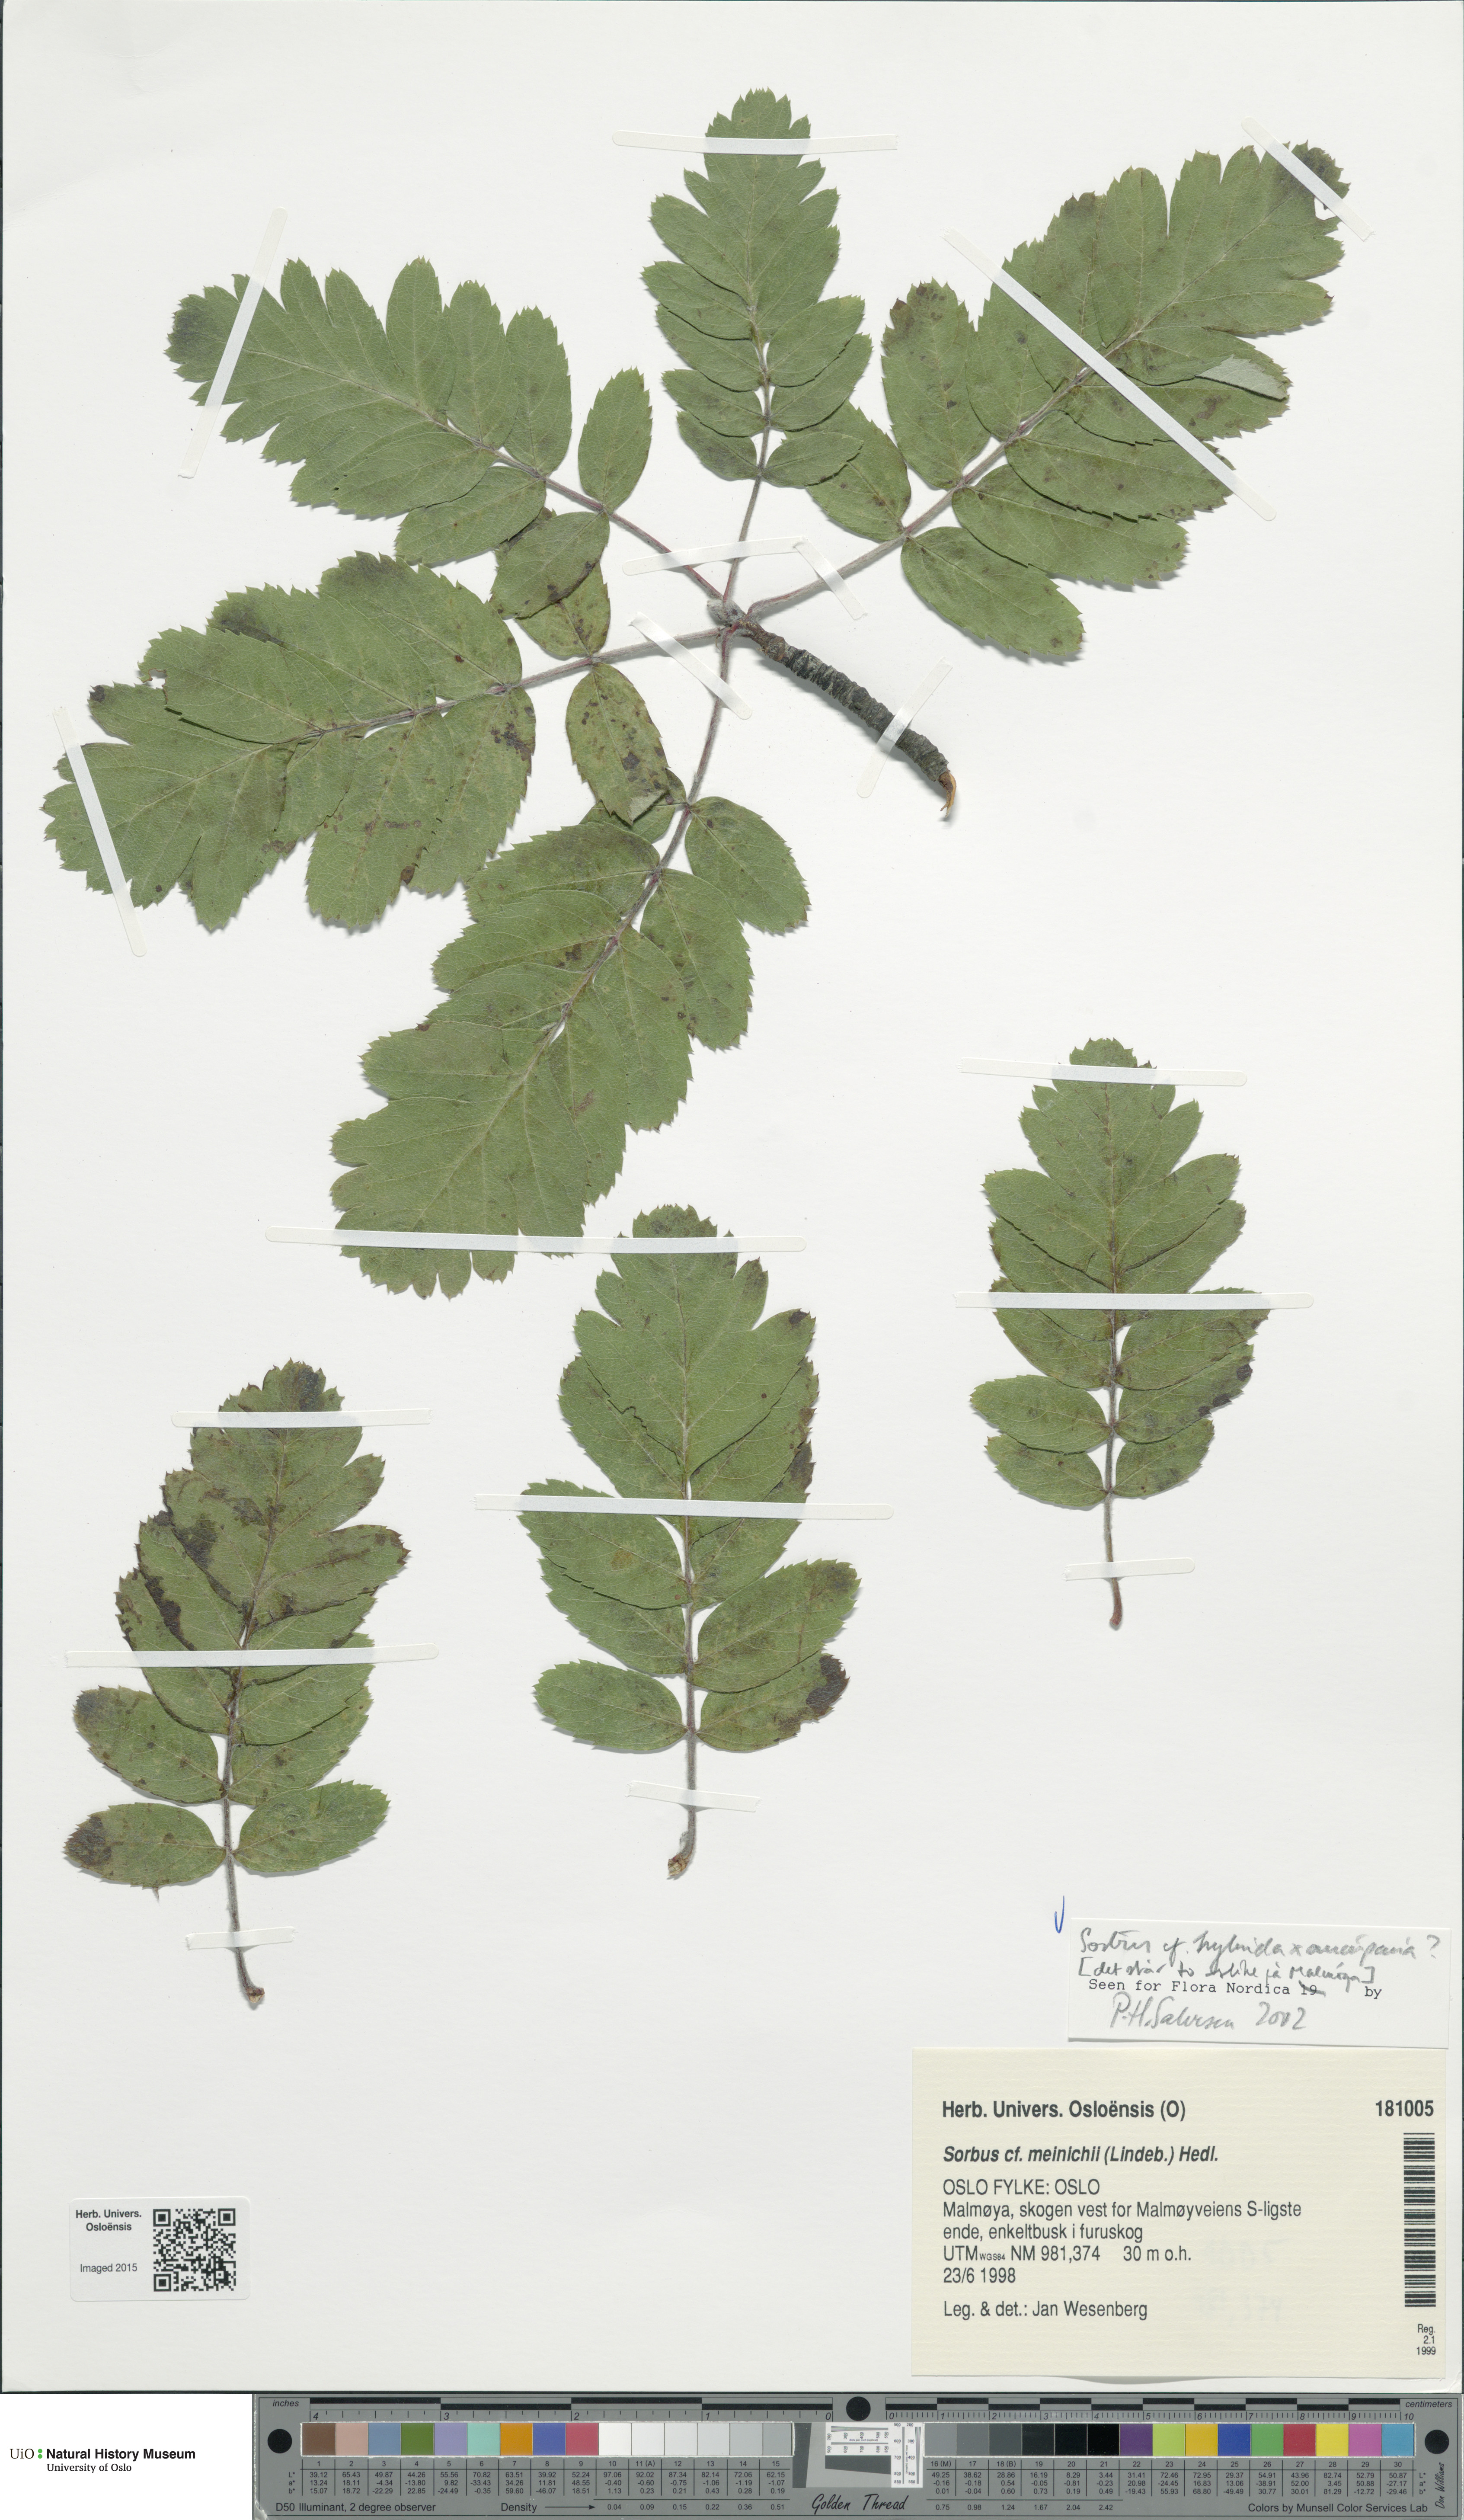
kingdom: Plantae
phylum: Tracheophyta
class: Magnoliopsida
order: Rosales
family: Rosaceae
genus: Hedlundia
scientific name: Hedlundia
